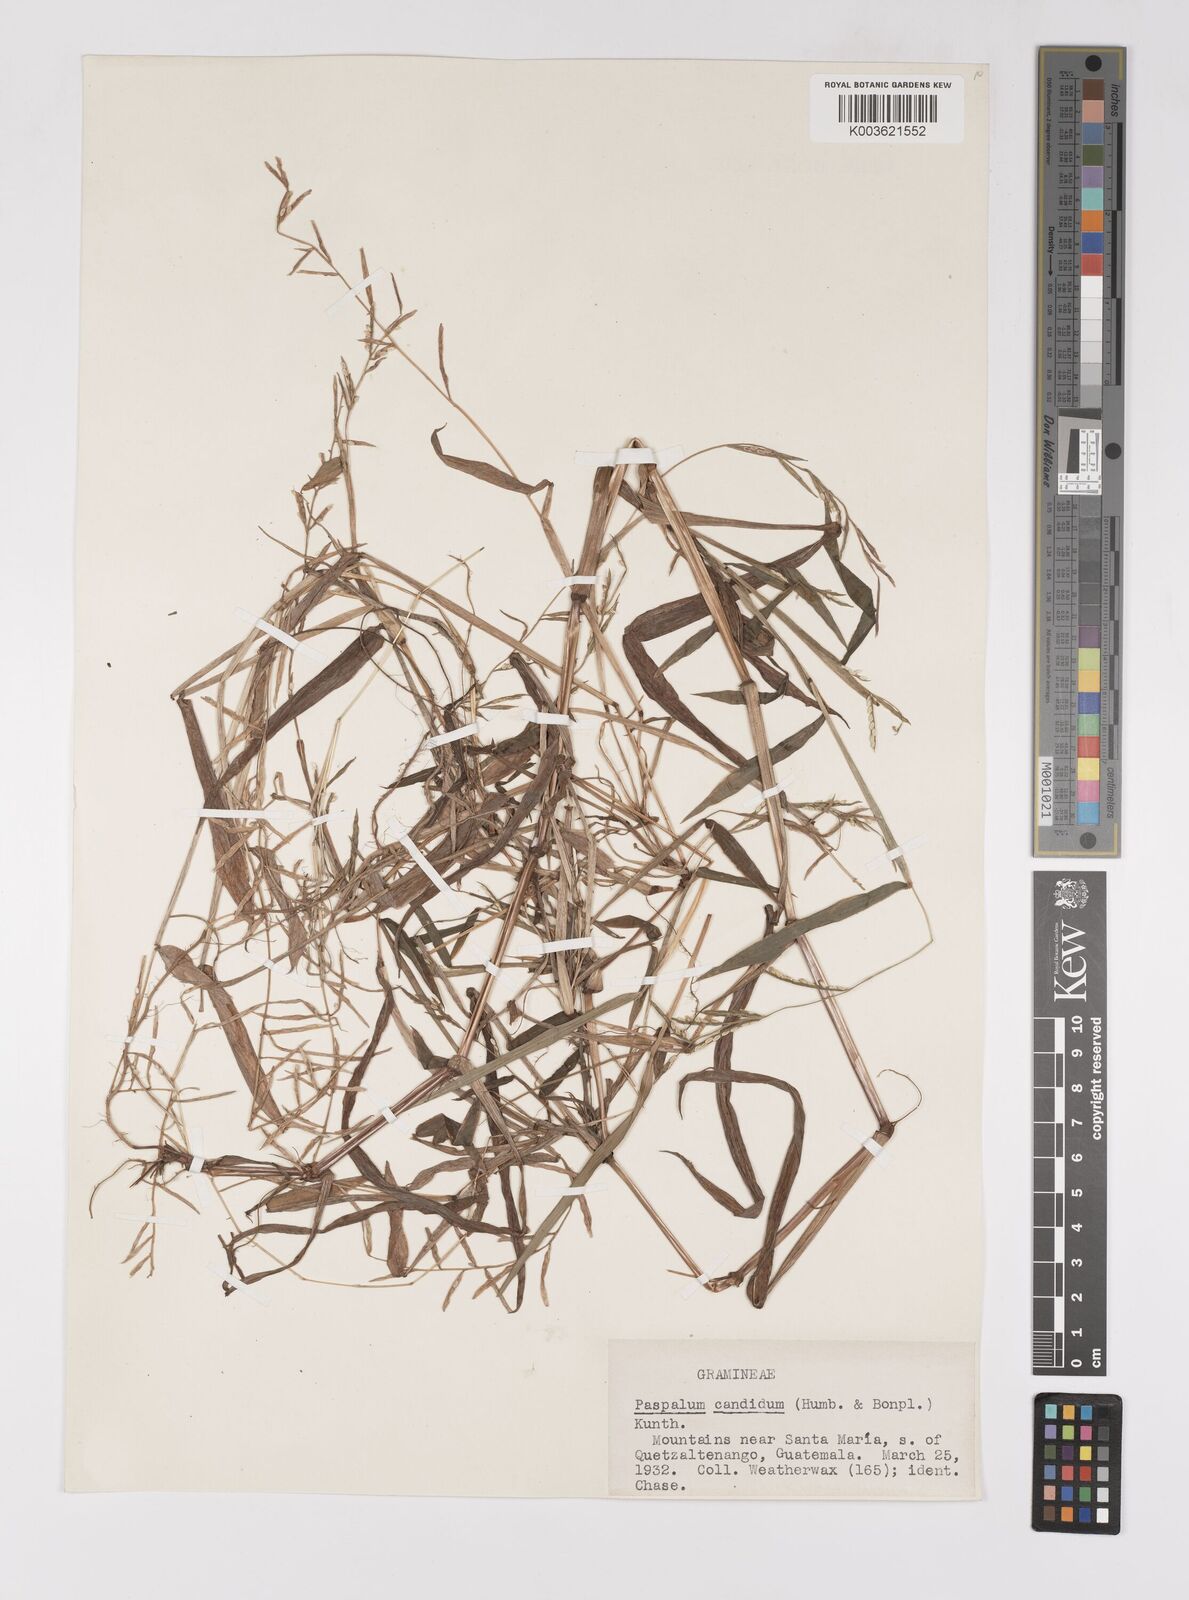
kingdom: Plantae
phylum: Tracheophyta
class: Liliopsida
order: Poales
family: Poaceae
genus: Paspalum
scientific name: Paspalum candidum
